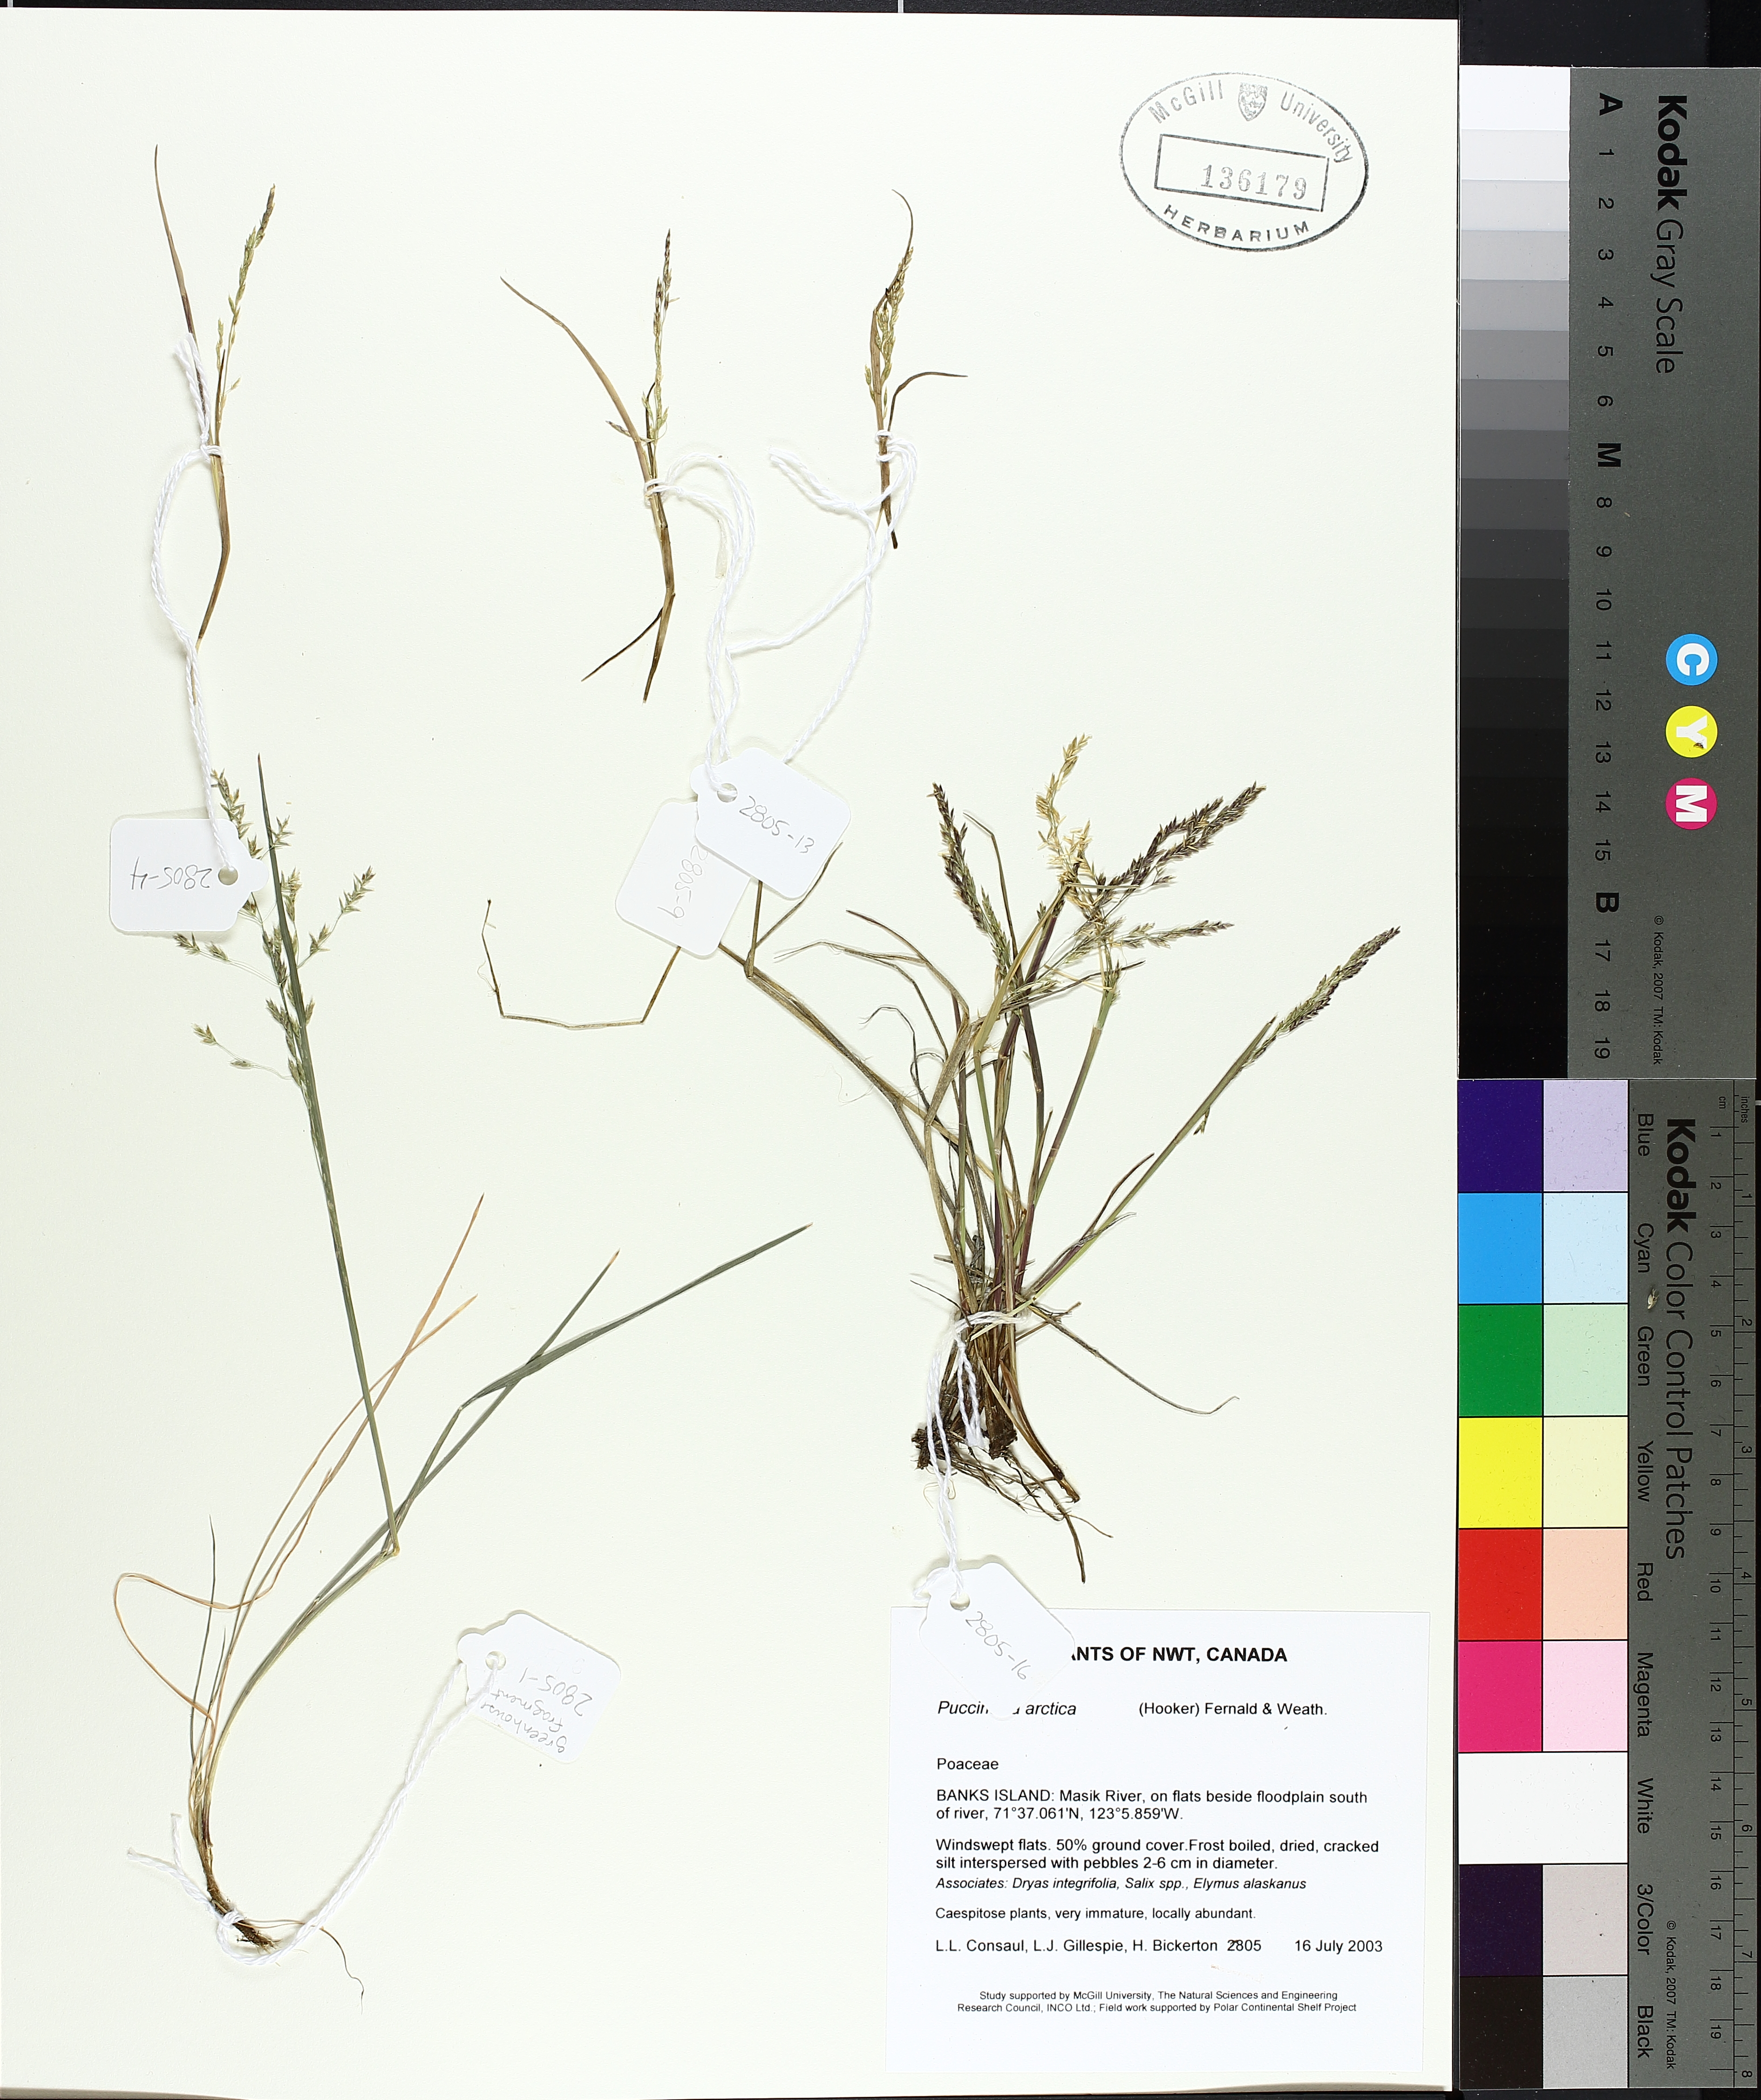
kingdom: Plantae
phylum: Tracheophyta
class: Liliopsida
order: Poales
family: Poaceae
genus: Puccinellia
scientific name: Puccinellia arctica
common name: Arctic alkali grass
